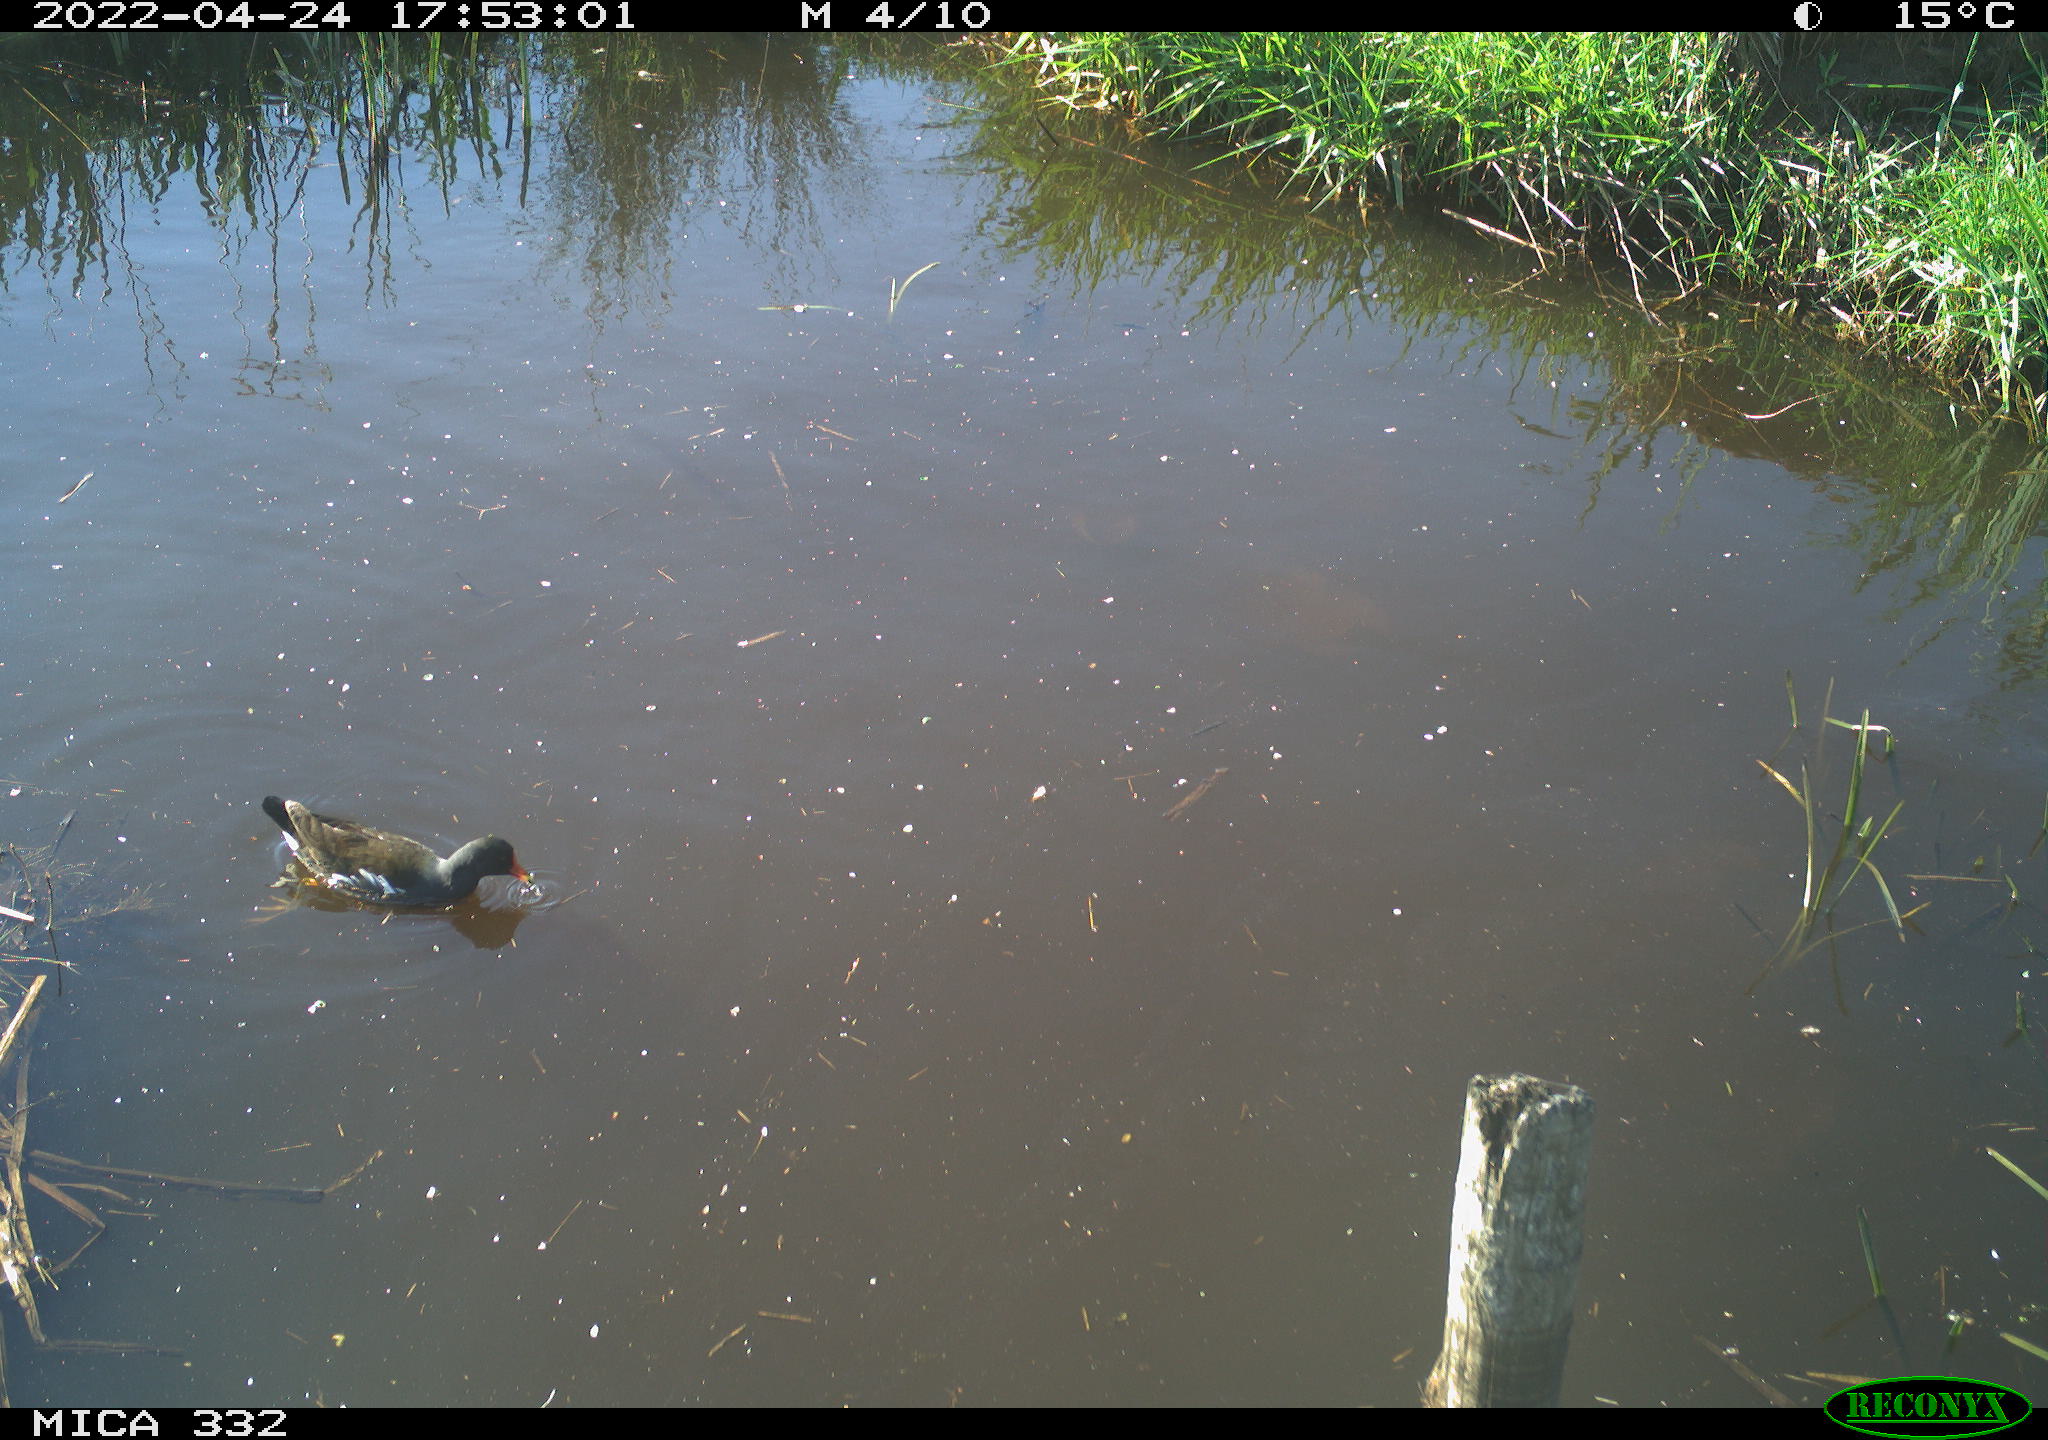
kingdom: Animalia
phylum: Chordata
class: Aves
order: Gruiformes
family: Rallidae
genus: Gallinula
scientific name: Gallinula chloropus
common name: Common moorhen
